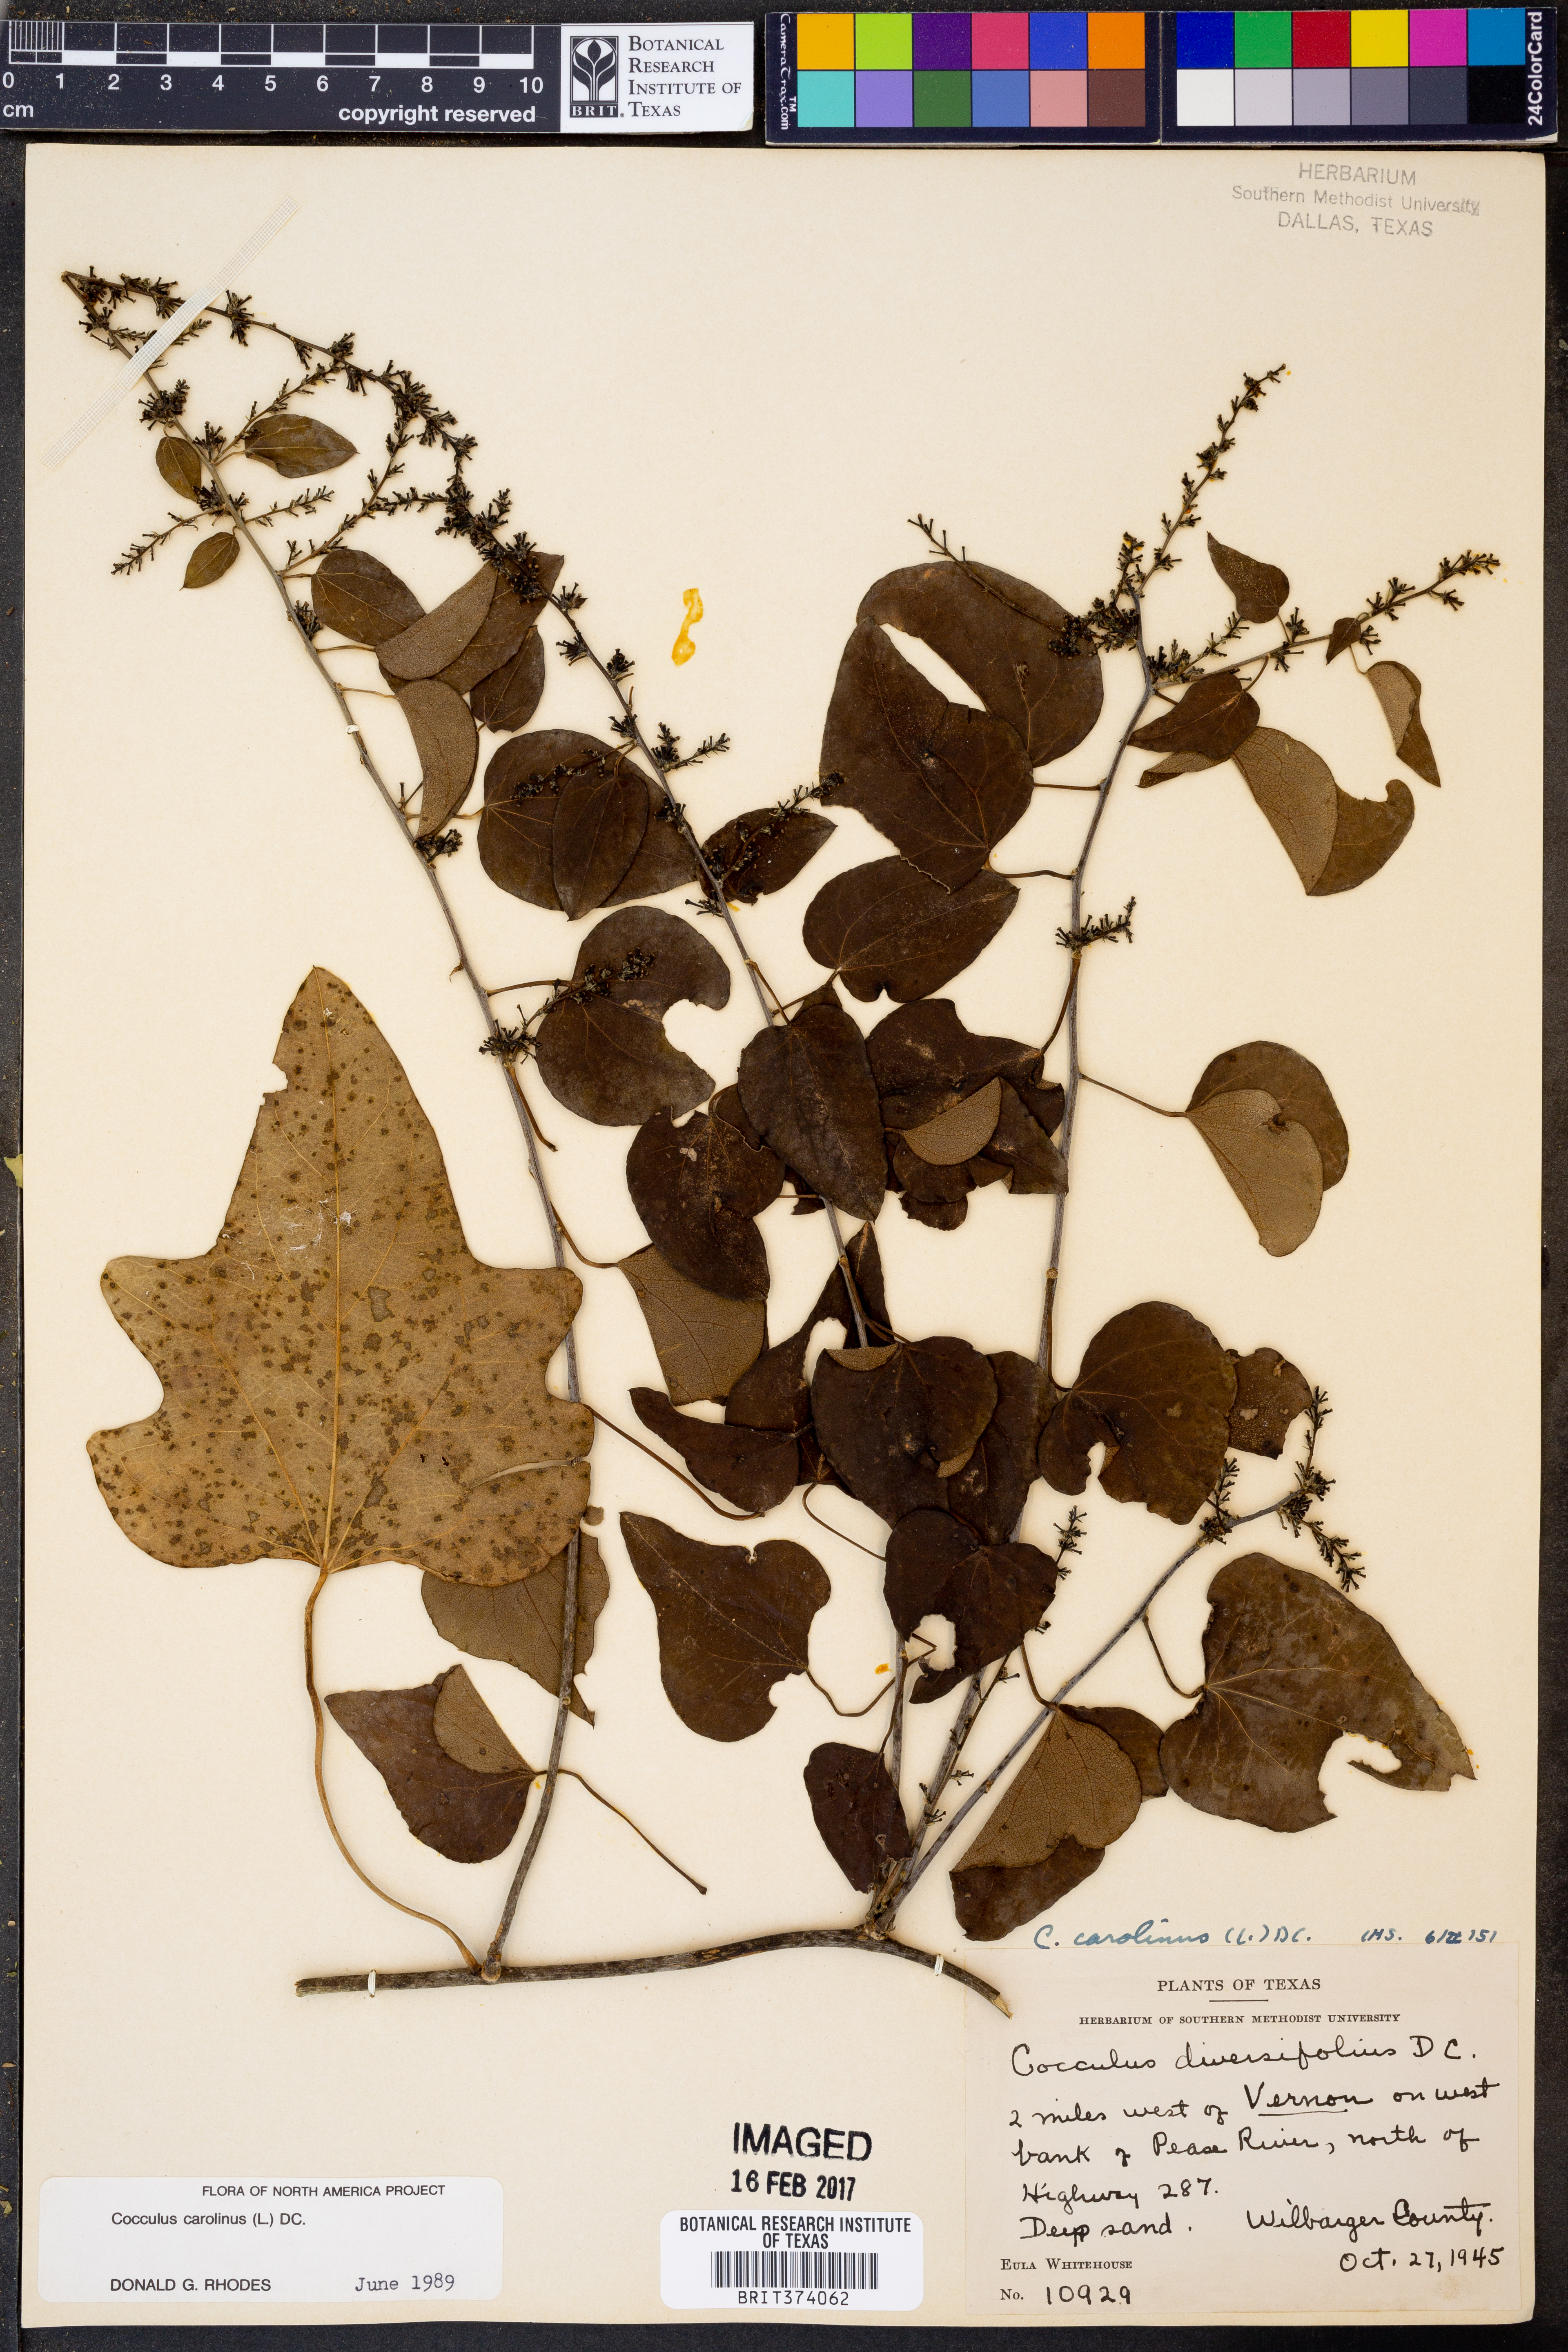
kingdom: Plantae
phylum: Tracheophyta
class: Magnoliopsida
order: Ranunculales
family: Menispermaceae
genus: Cocculus
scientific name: Cocculus carolinus
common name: Carolina moonseed
